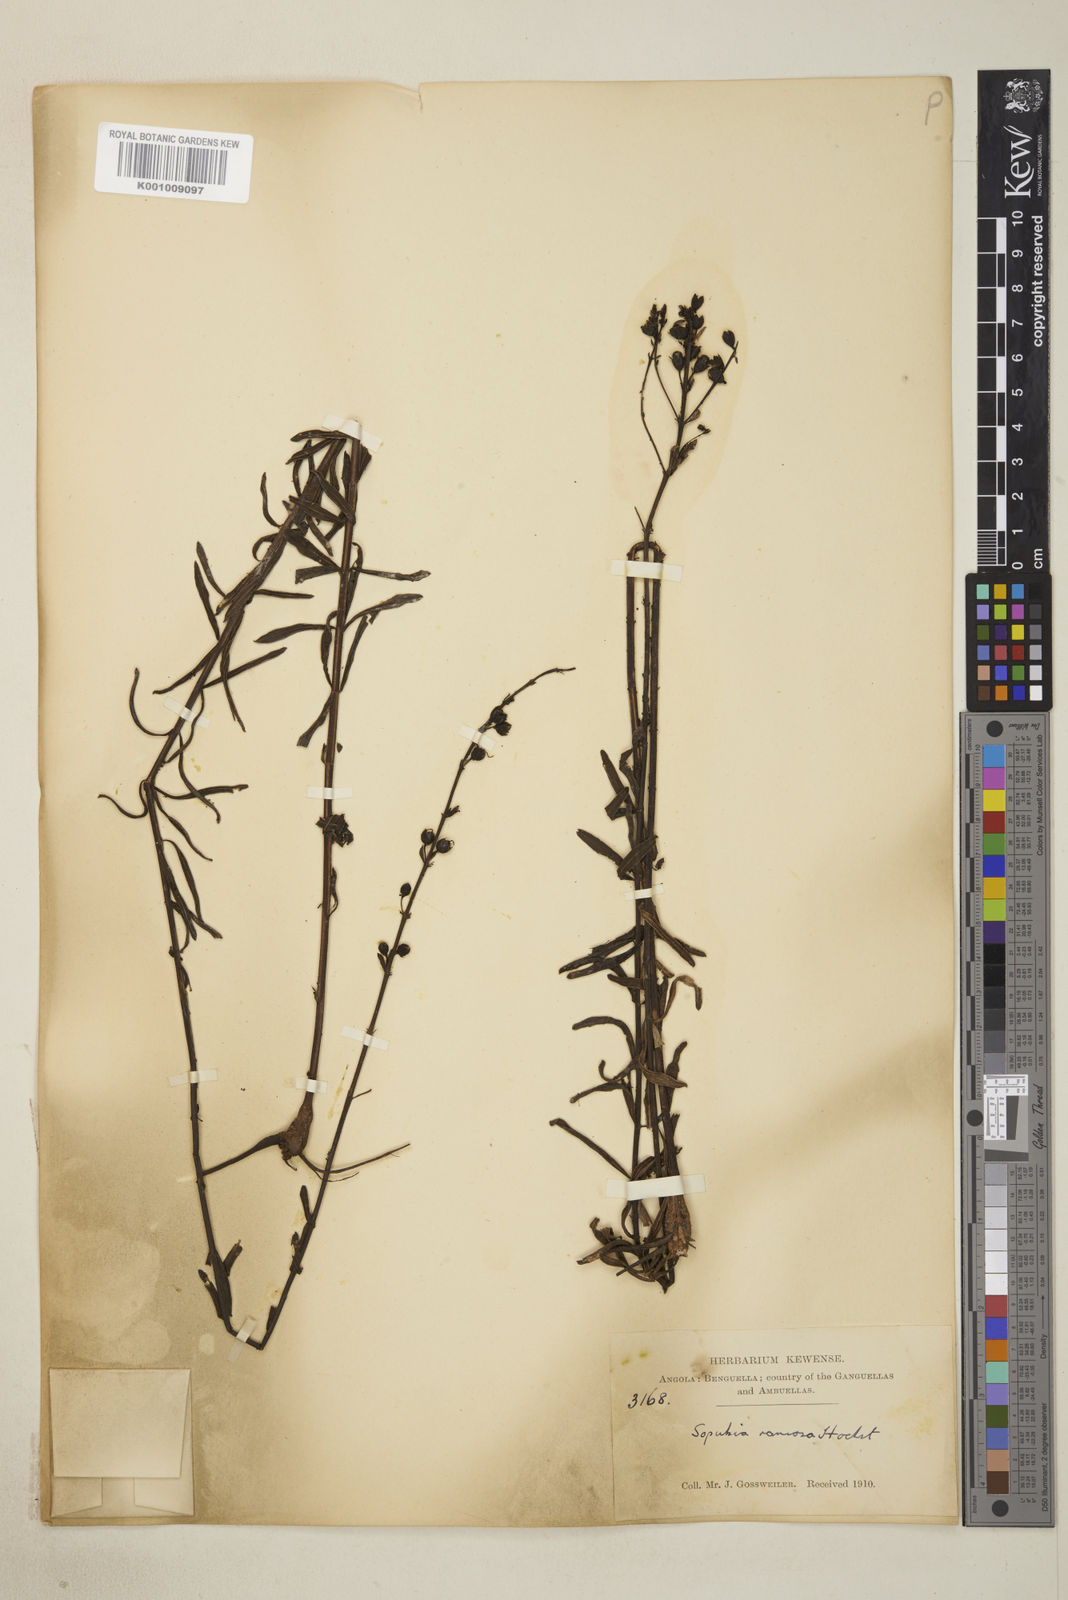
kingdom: Plantae
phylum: Tracheophyta
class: Magnoliopsida
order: Lamiales
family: Orobanchaceae
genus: Sopubia
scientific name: Sopubia ramosa
